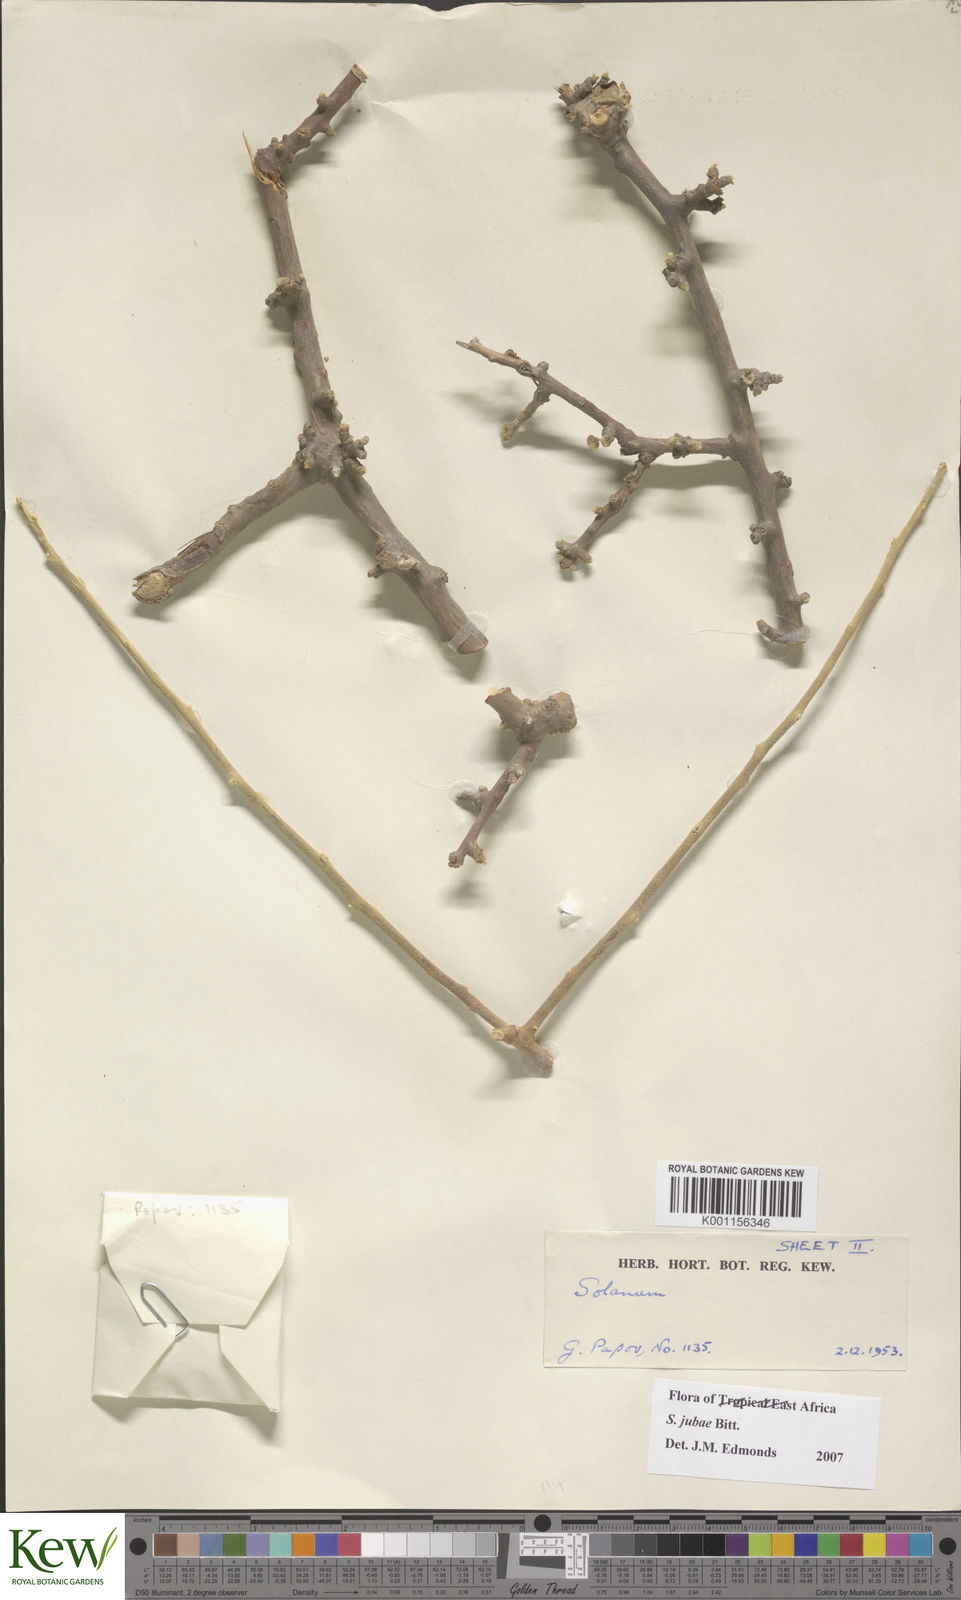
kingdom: Plantae
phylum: Tracheophyta
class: Magnoliopsida
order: Solanales
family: Solanaceae
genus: Solanum
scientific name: Solanum jubae
